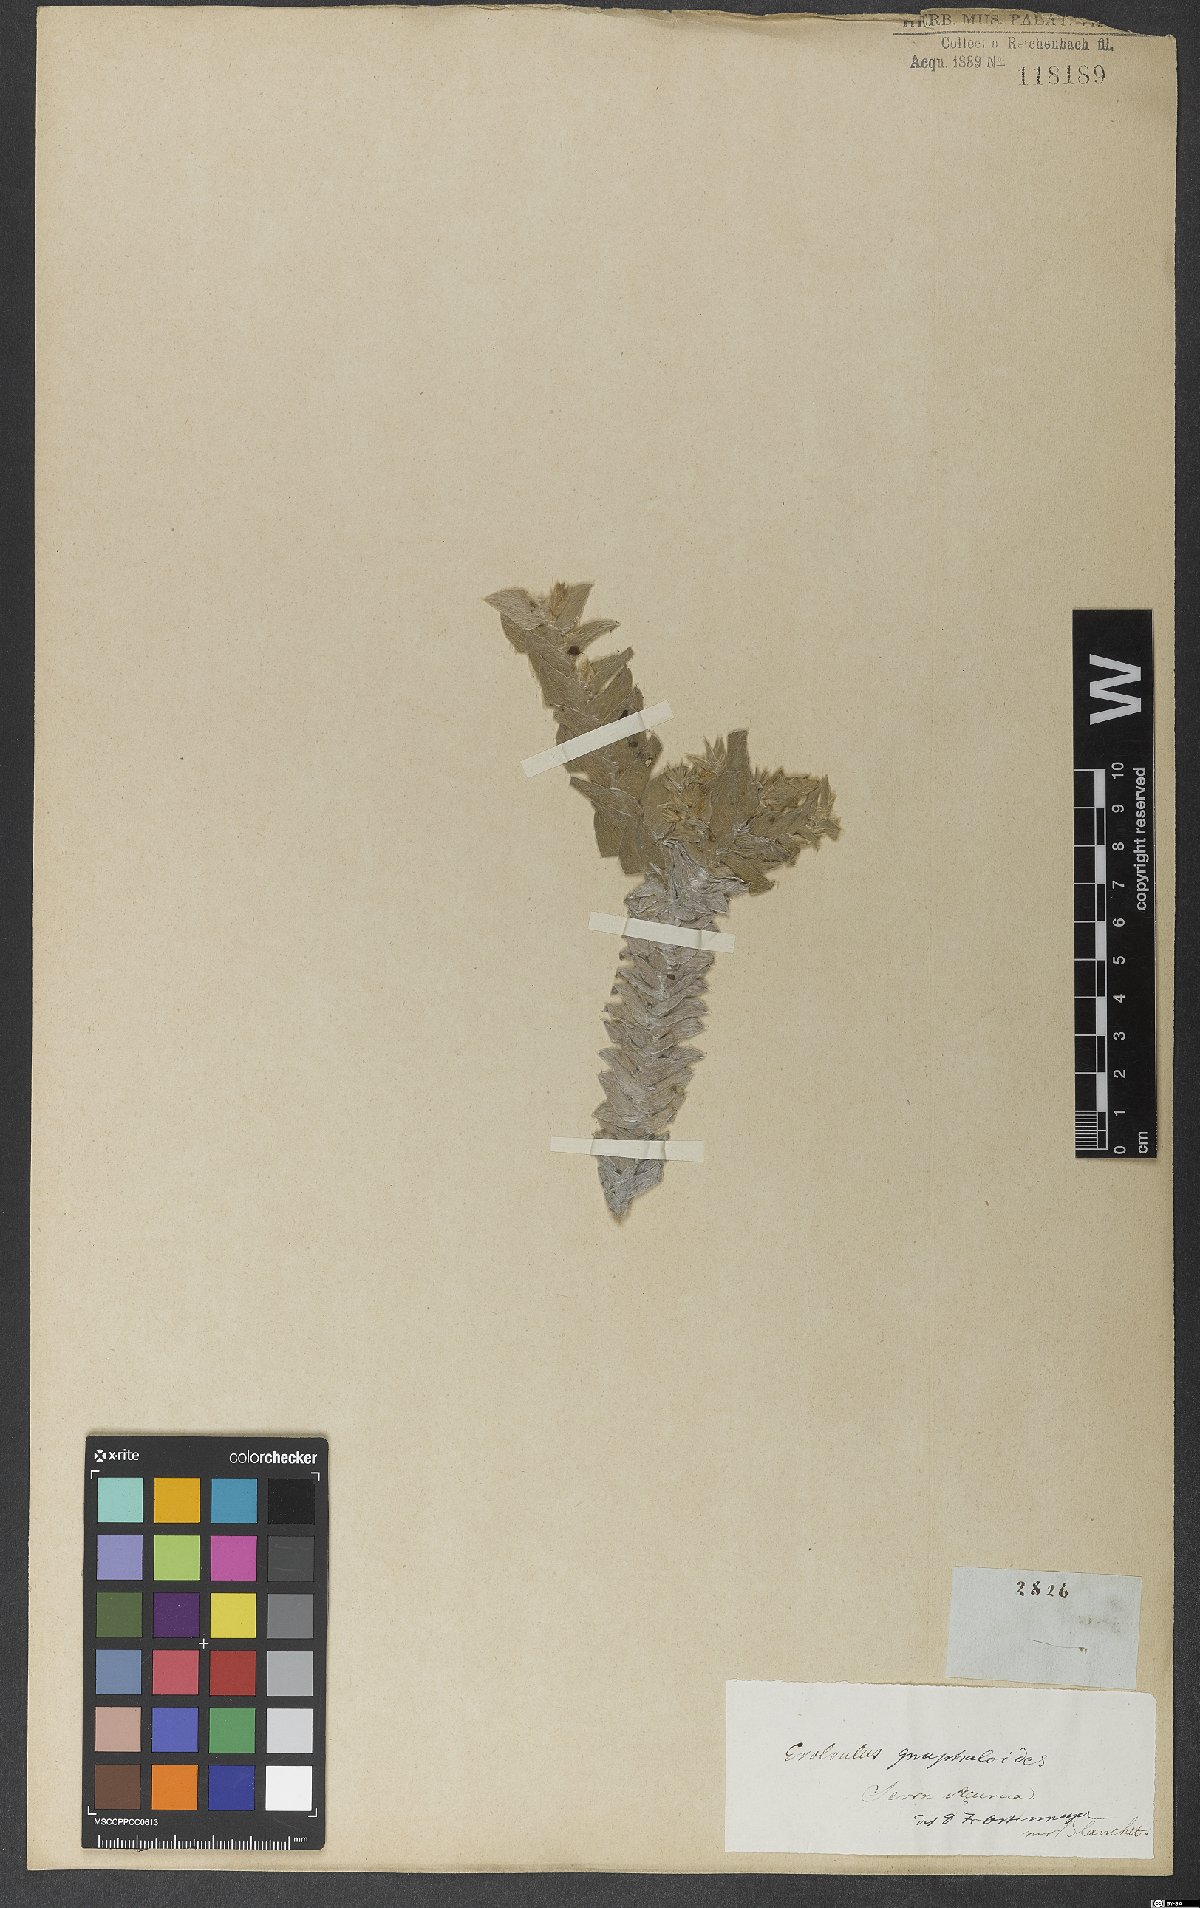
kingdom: Plantae
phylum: Tracheophyta
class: Magnoliopsida
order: Solanales
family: Convolvulaceae
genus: Evolvulus
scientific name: Evolvulus gnaphalioides
